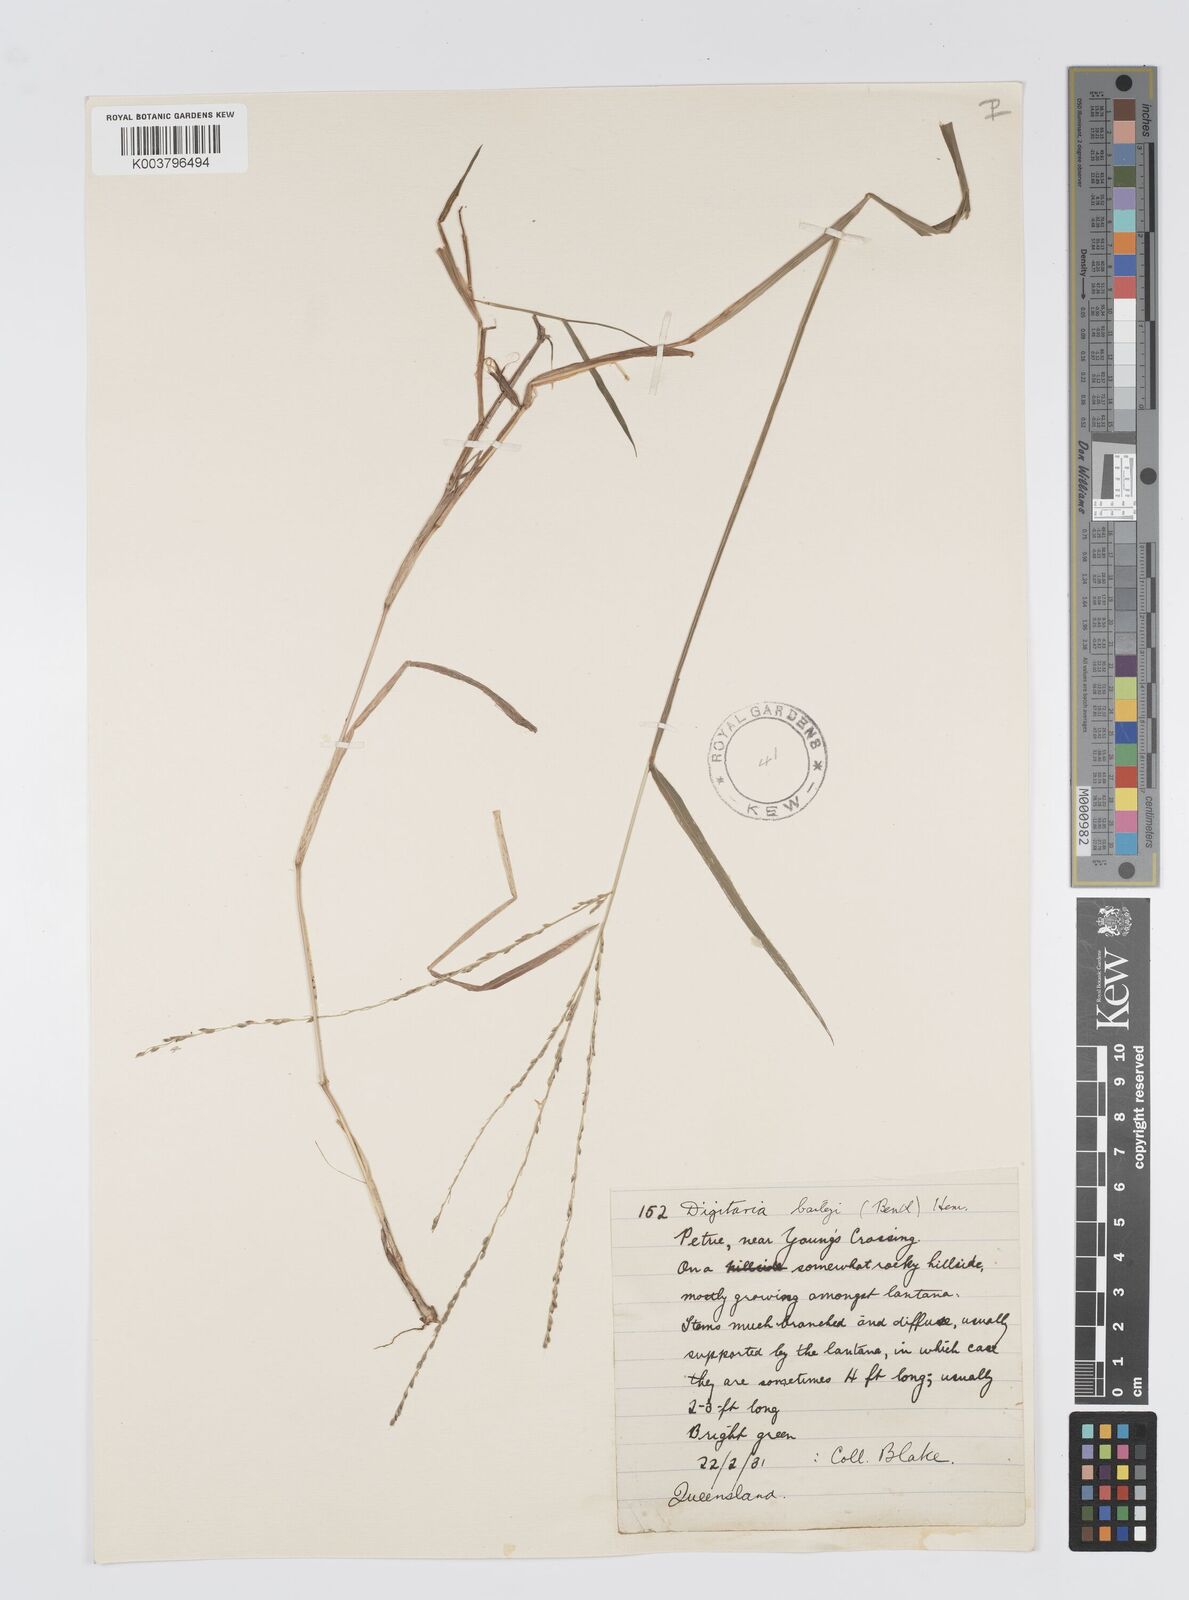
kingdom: Plantae
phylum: Tracheophyta
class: Liliopsida
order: Poales
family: Poaceae
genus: Digitaria
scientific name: Digitaria baileyi
